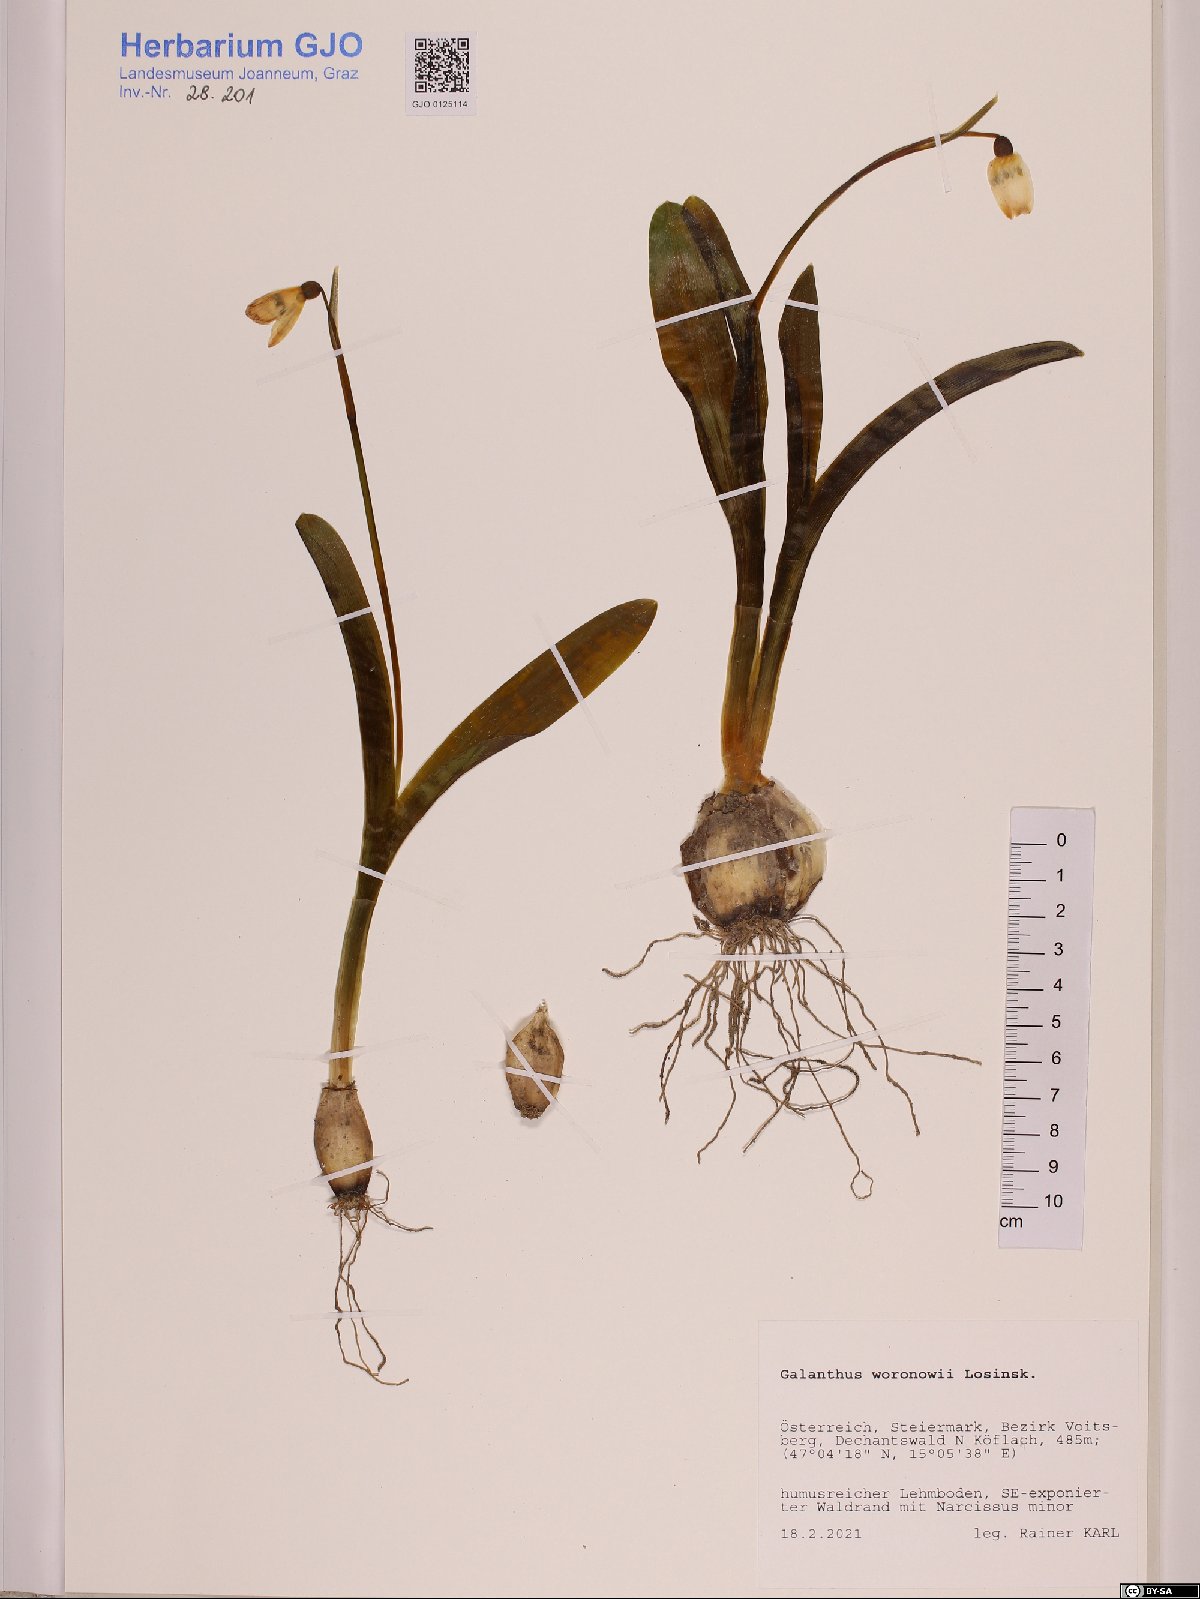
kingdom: Plantae
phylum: Tracheophyta
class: Liliopsida
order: Asparagales
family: Amaryllidaceae
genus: Galanthus
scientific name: Galanthus woronowii
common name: Green snowdrop
